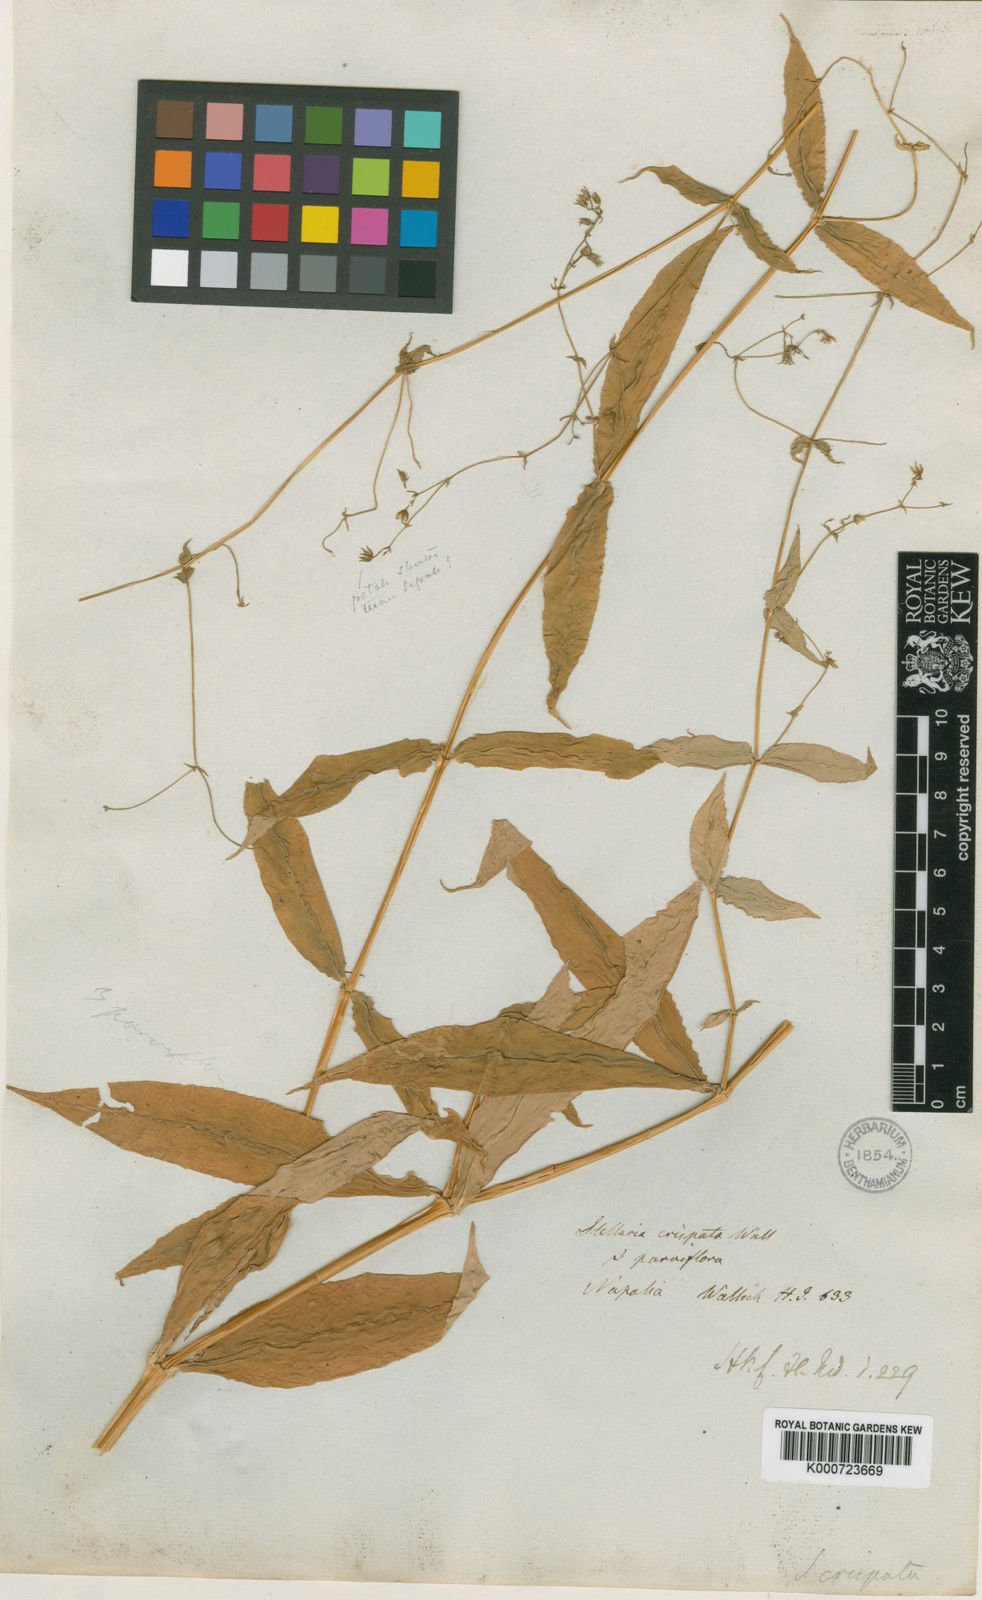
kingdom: Plantae
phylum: Tracheophyta
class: Magnoliopsida
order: Caryophyllales
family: Caryophyllaceae
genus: Schizotechium
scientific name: Schizotechium monospermum
